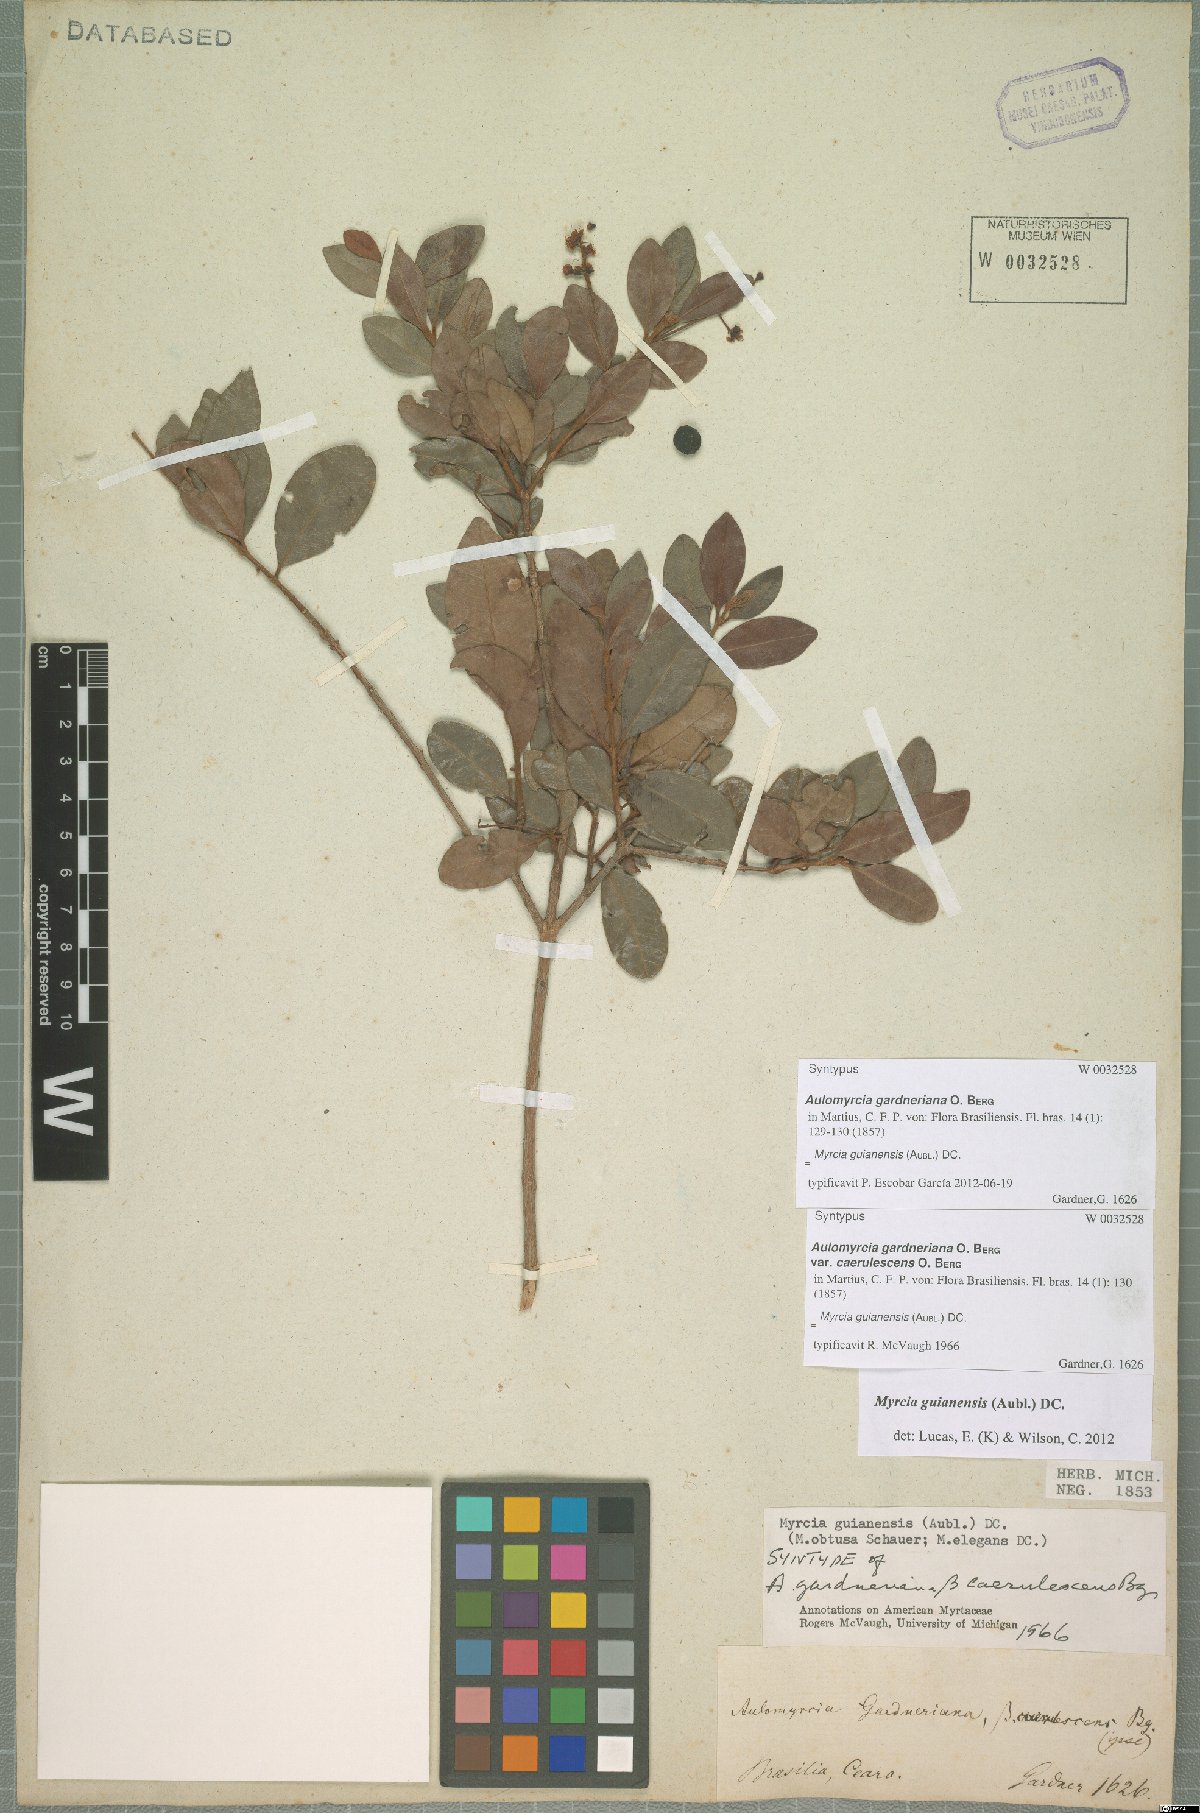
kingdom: Plantae
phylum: Tracheophyta
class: Magnoliopsida
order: Myrtales
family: Myrtaceae
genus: Myrcia
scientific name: Myrcia guianensis
